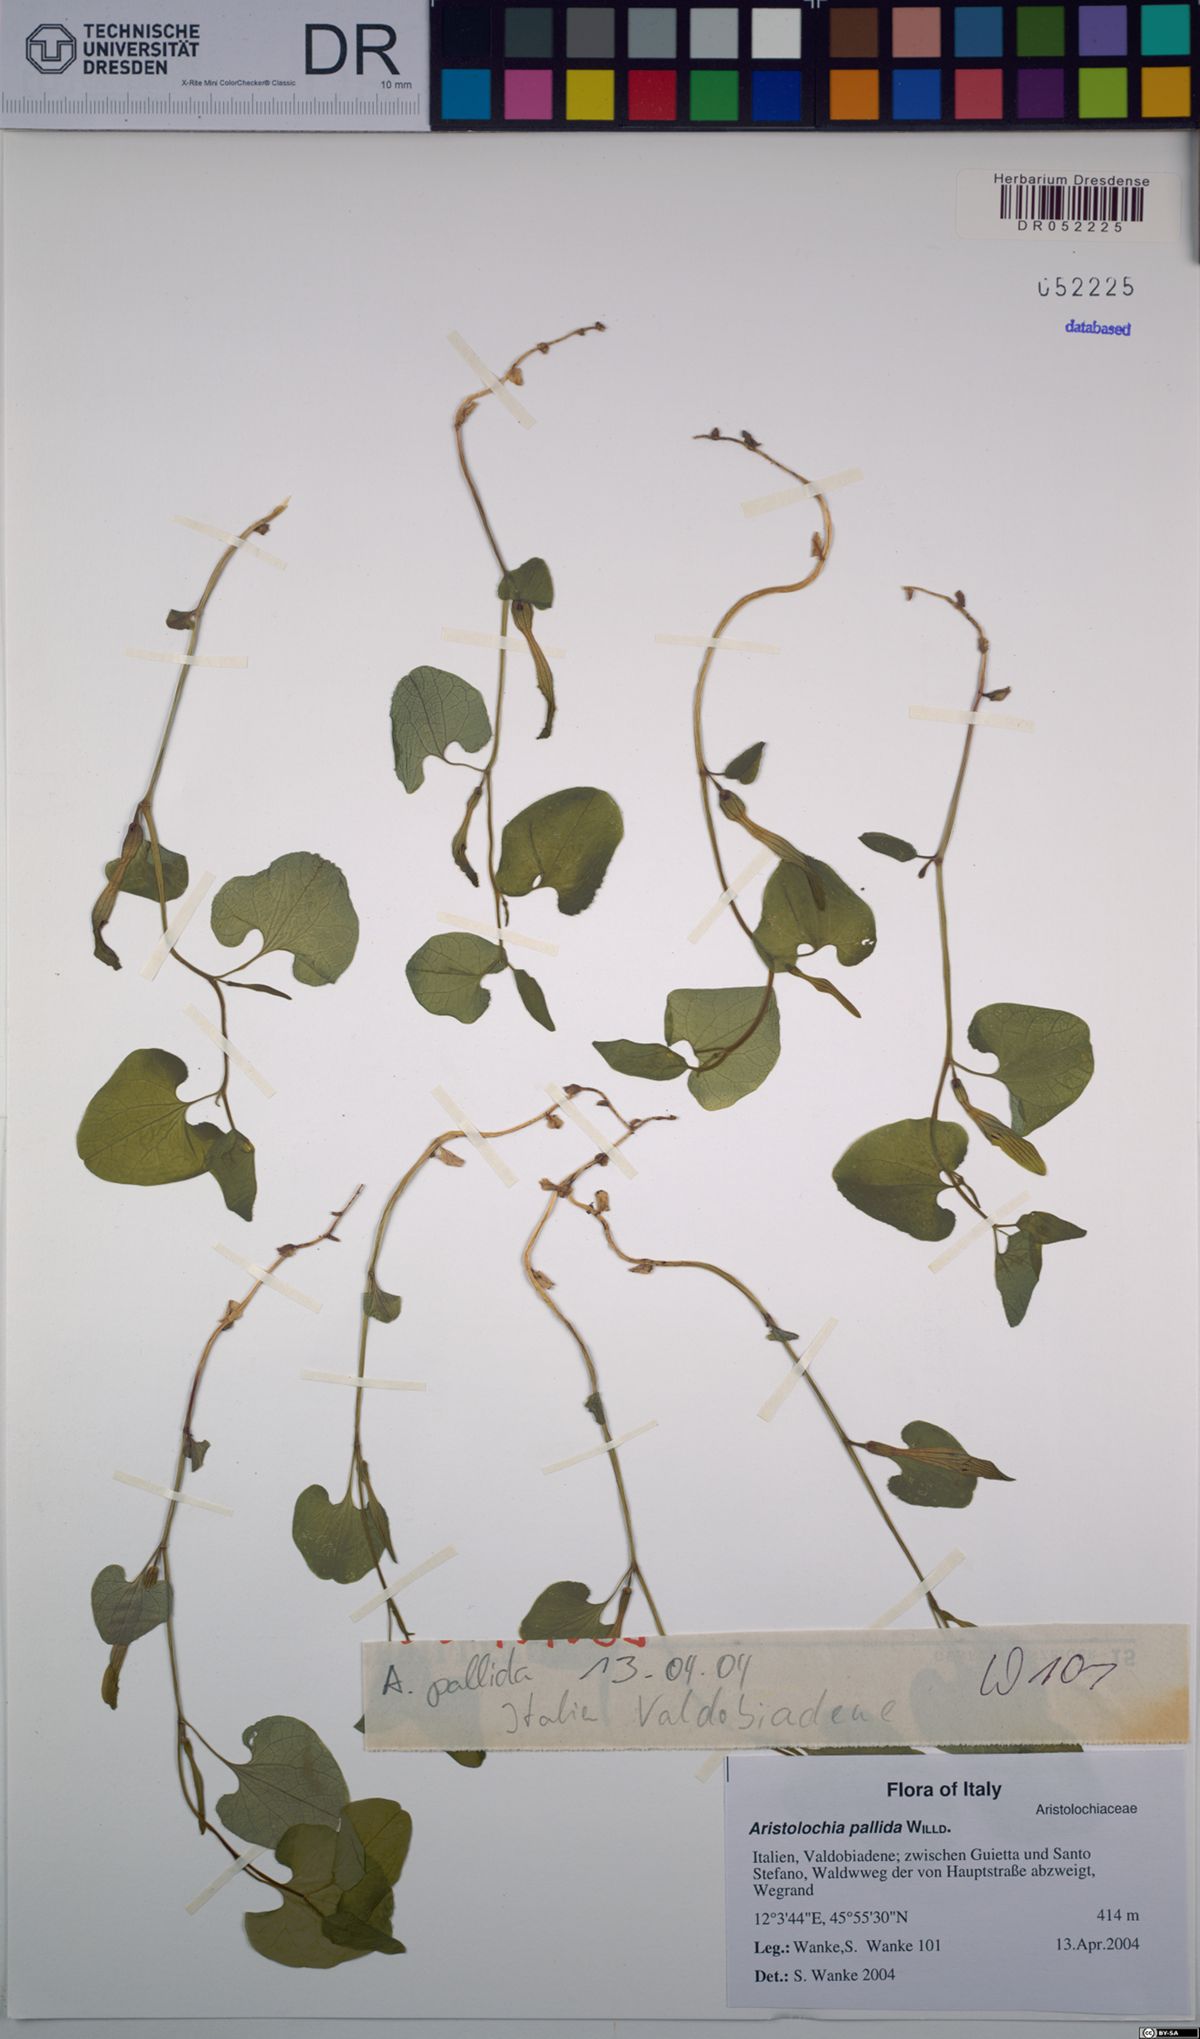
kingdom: Plantae
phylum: Tracheophyta
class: Magnoliopsida
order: Piperales
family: Aristolochiaceae
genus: Aristolochia
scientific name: Aristolochia pallida
